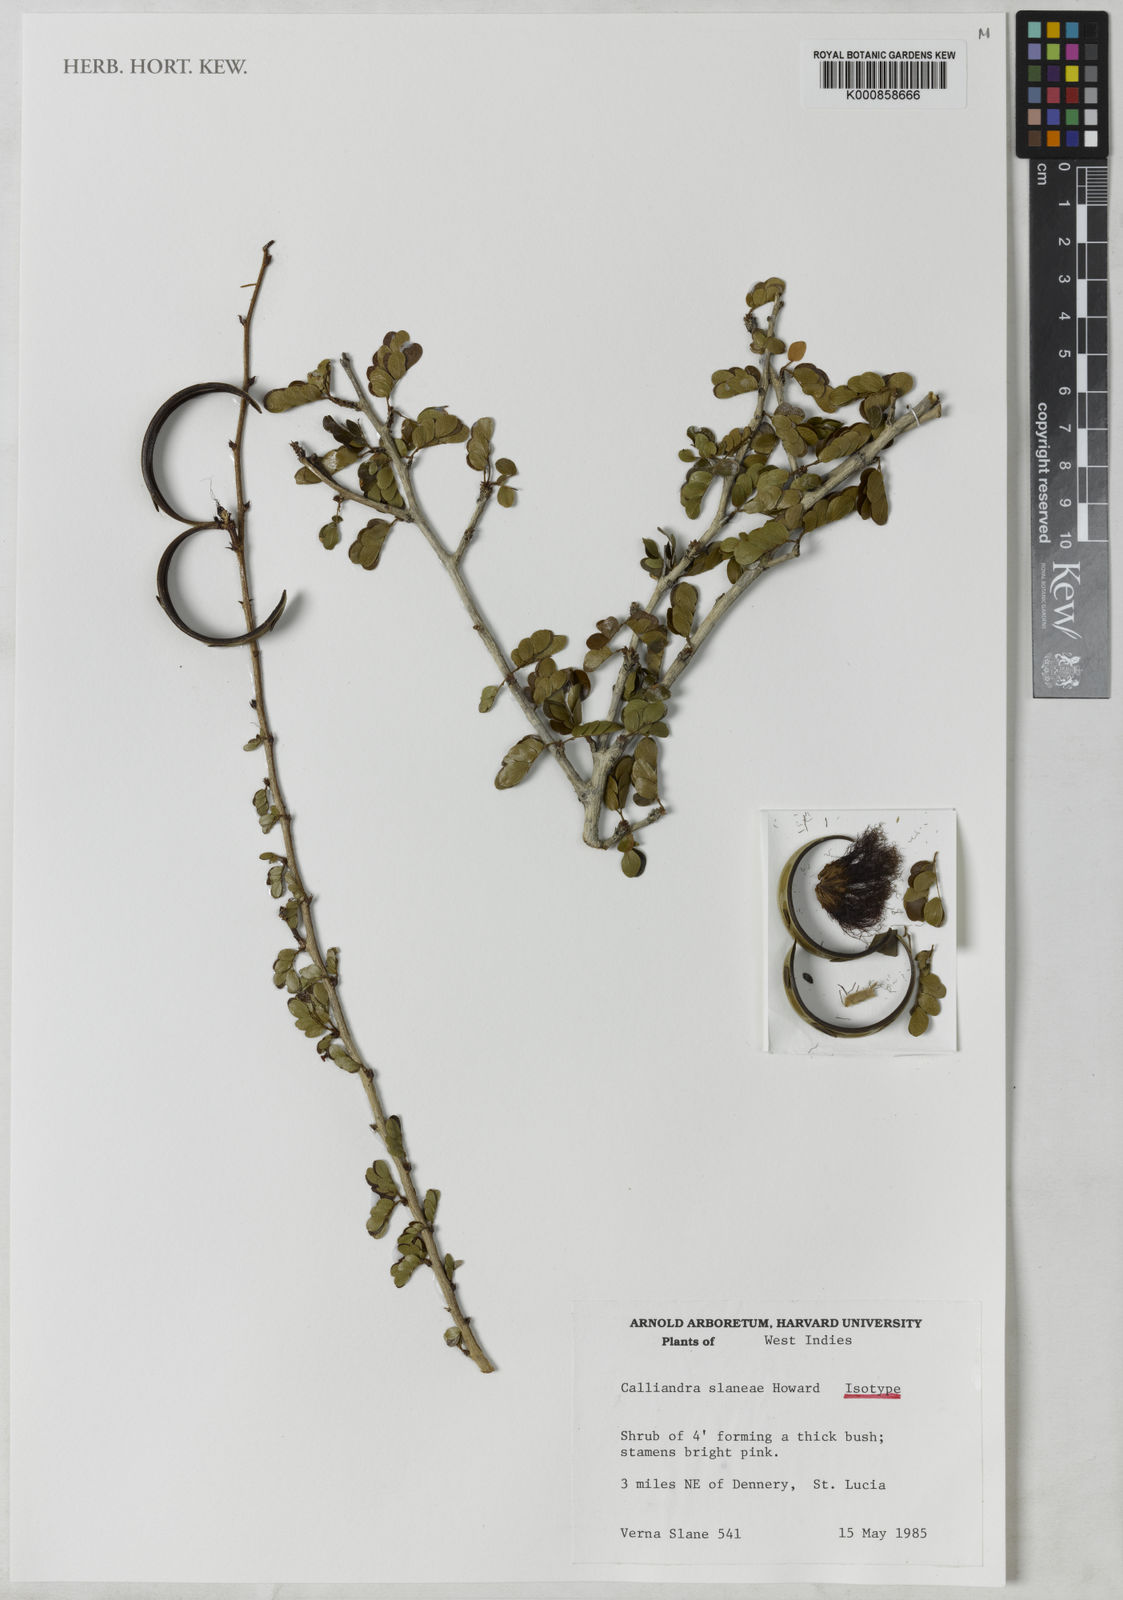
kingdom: Plantae
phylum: Tracheophyta
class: Magnoliopsida
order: Fabales
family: Fabaceae
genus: Calliandra
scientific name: Calliandra purpurea
